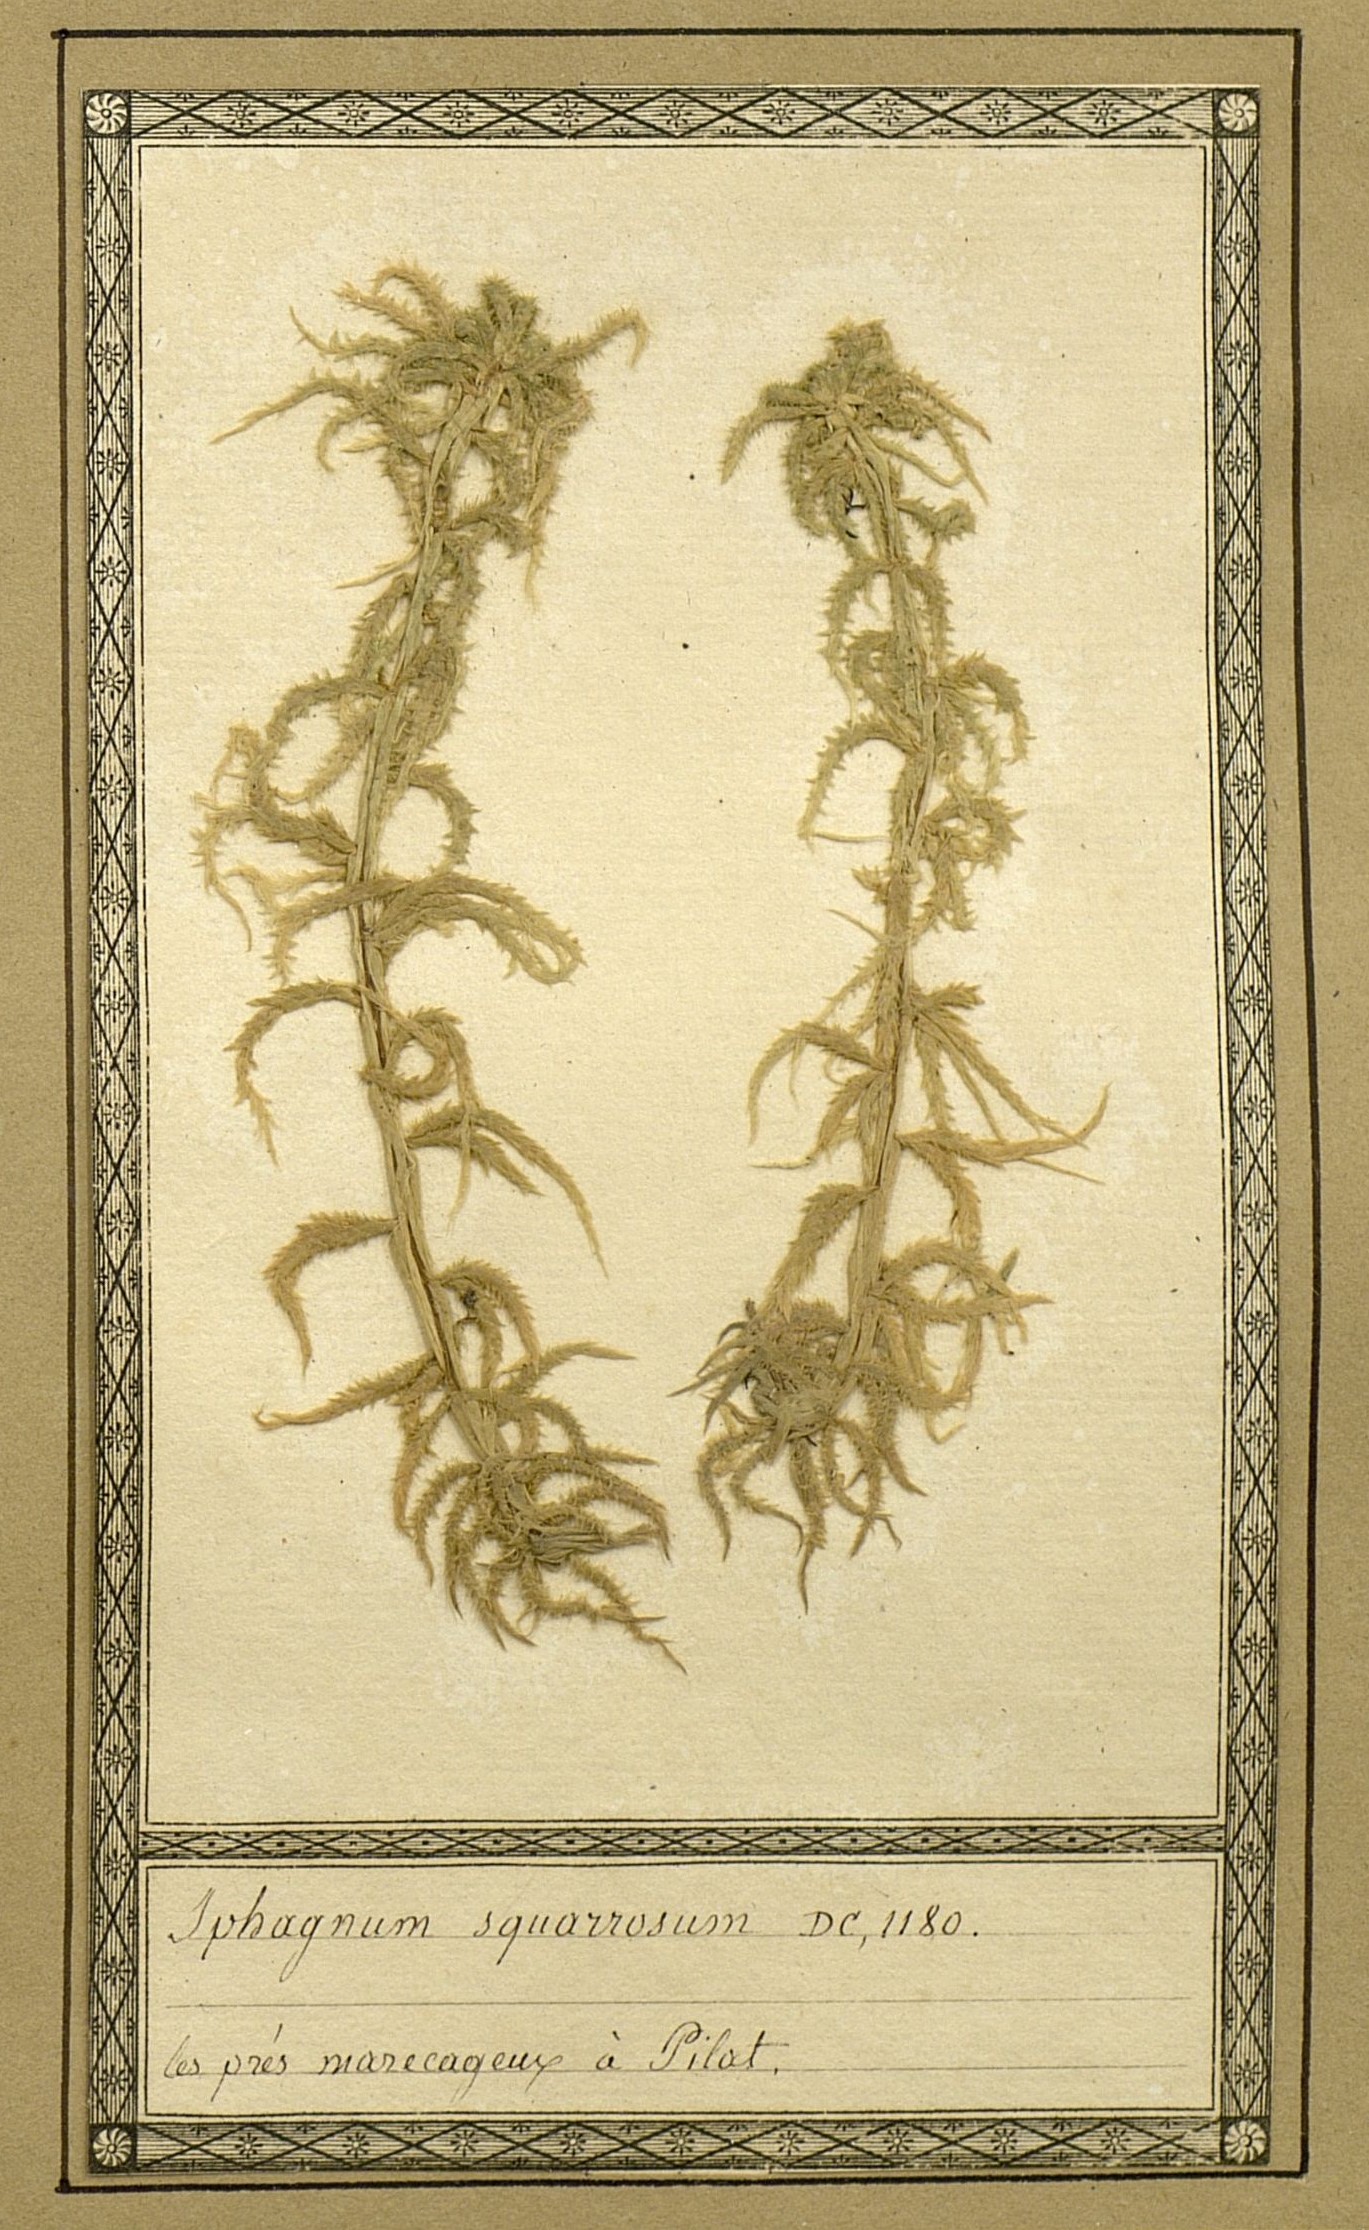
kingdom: Plantae
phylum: Bryophyta
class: Sphagnopsida
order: Sphagnales
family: Sphagnaceae
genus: Sphagnum
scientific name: Sphagnum squarrosum
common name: Shaggy peat moss
